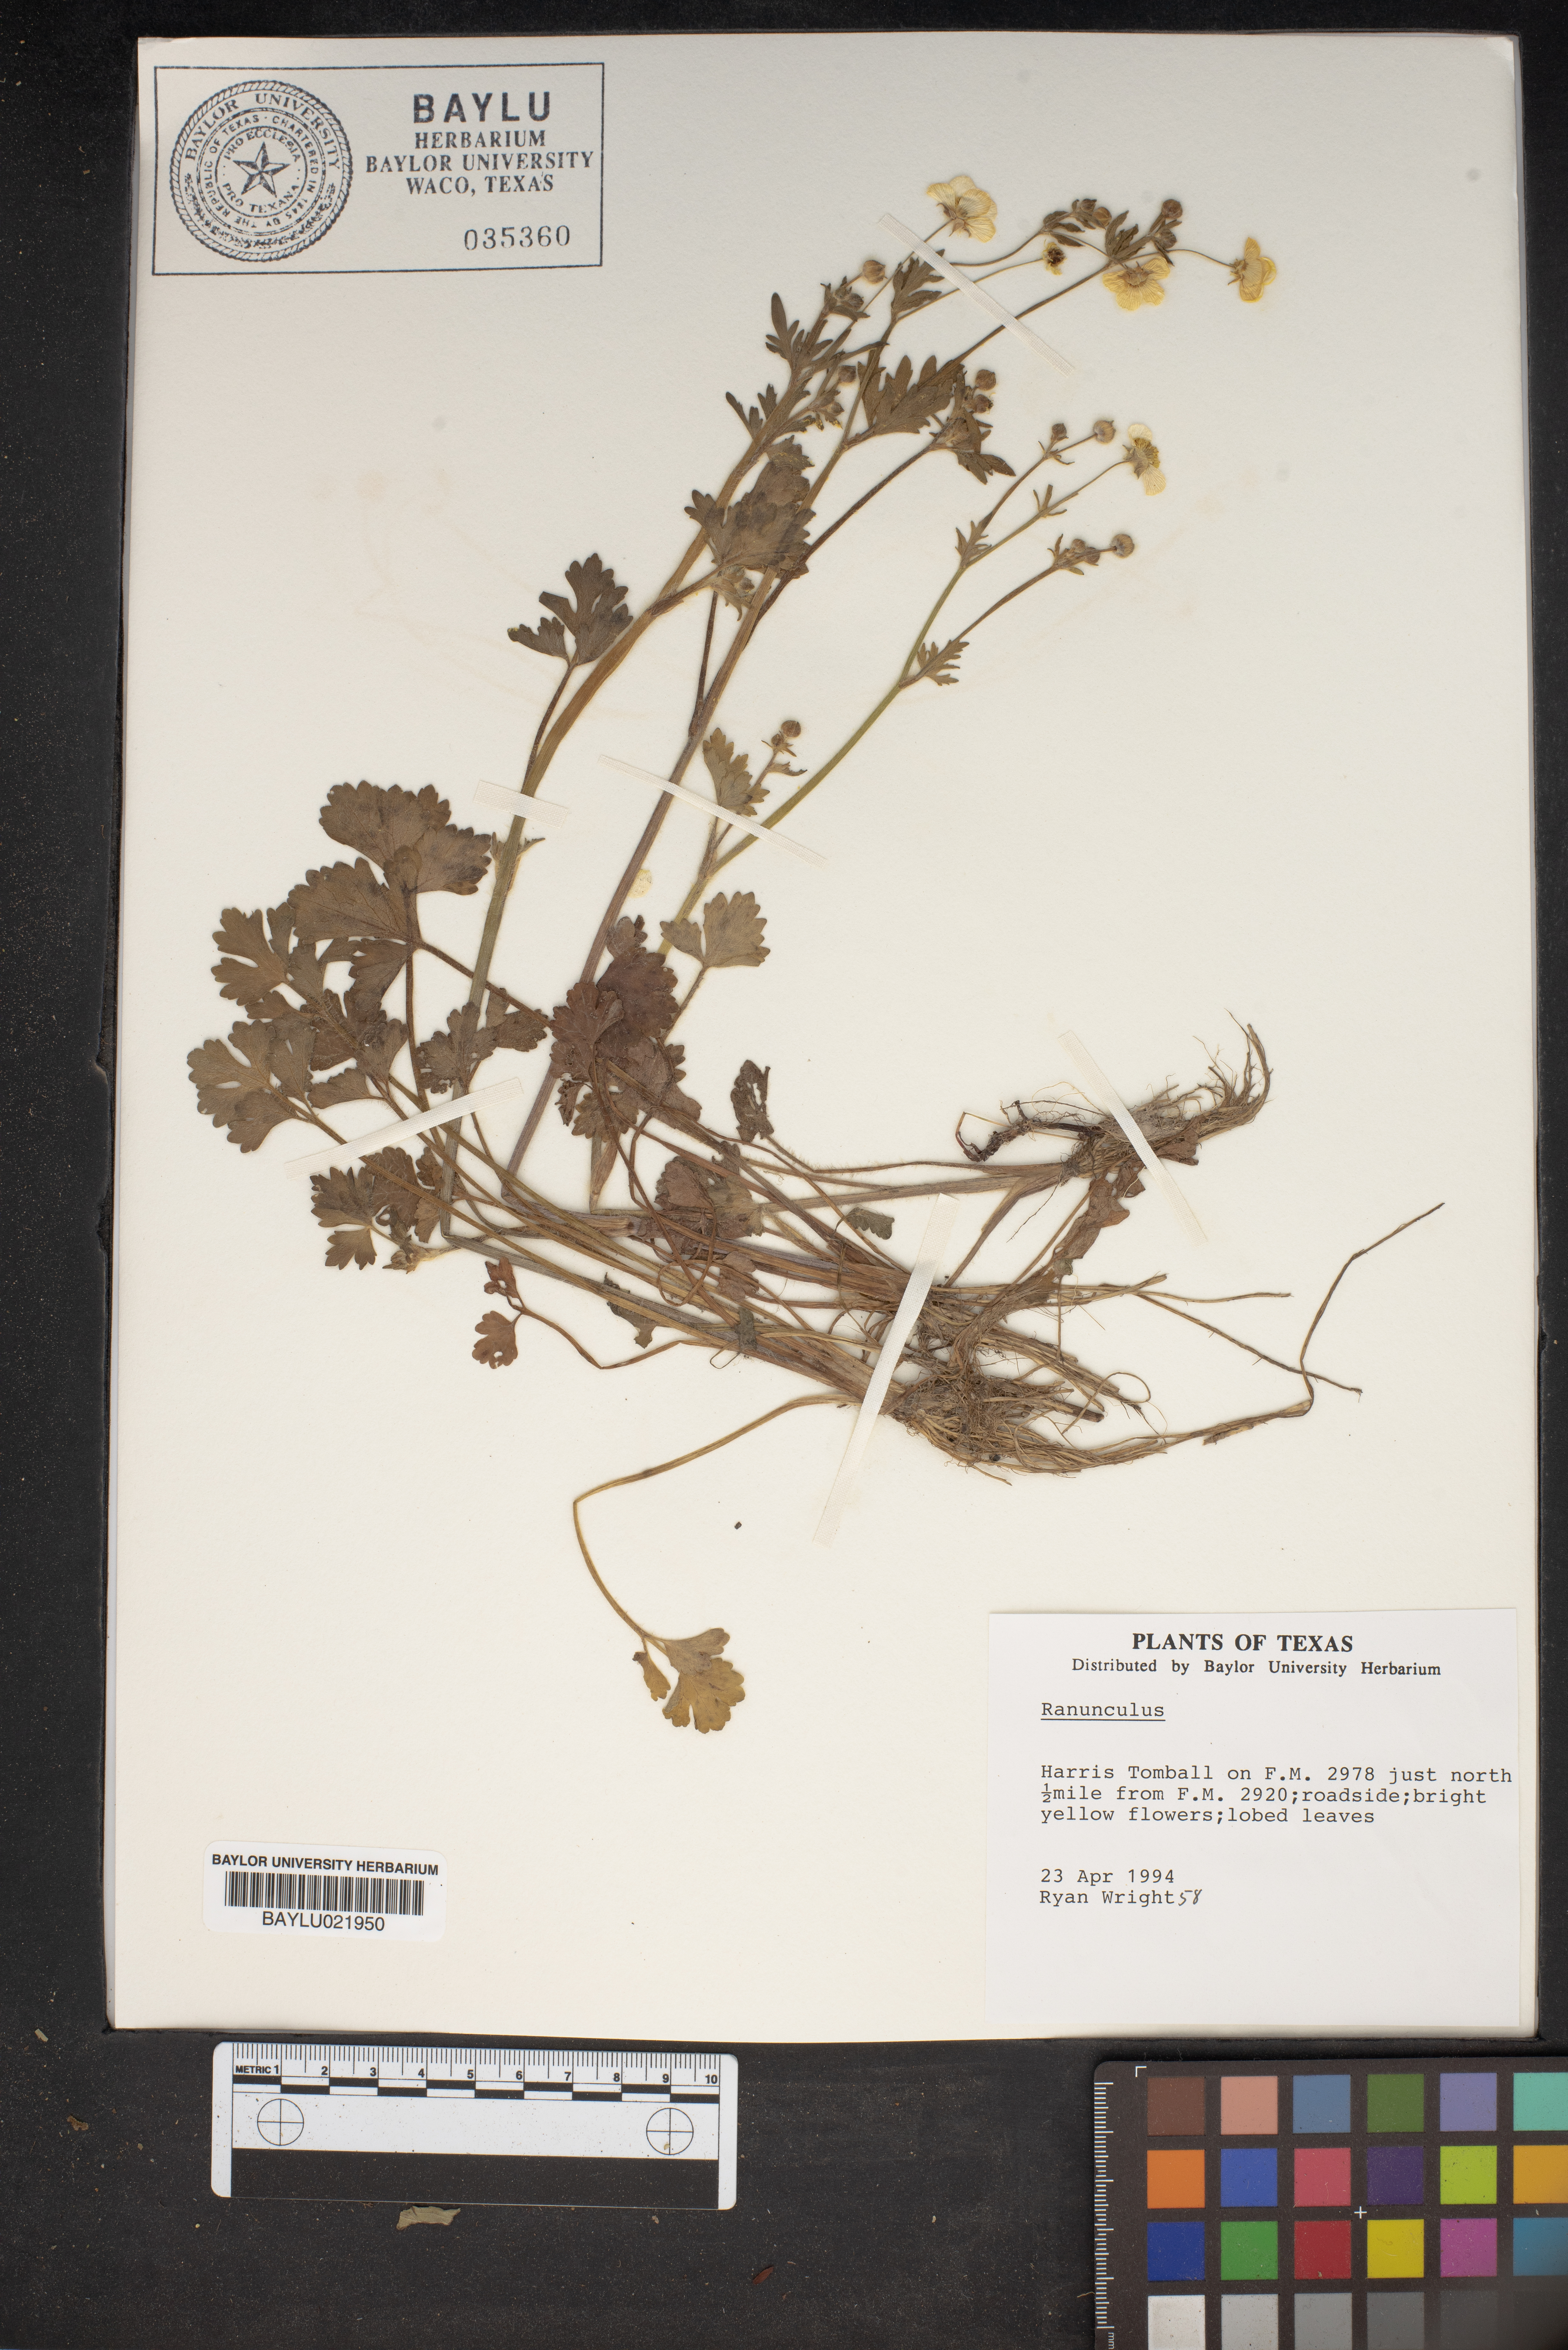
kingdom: Plantae
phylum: Tracheophyta
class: Magnoliopsida
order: Ranunculales
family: Ranunculaceae
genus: Ranunculus
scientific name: Ranunculus
